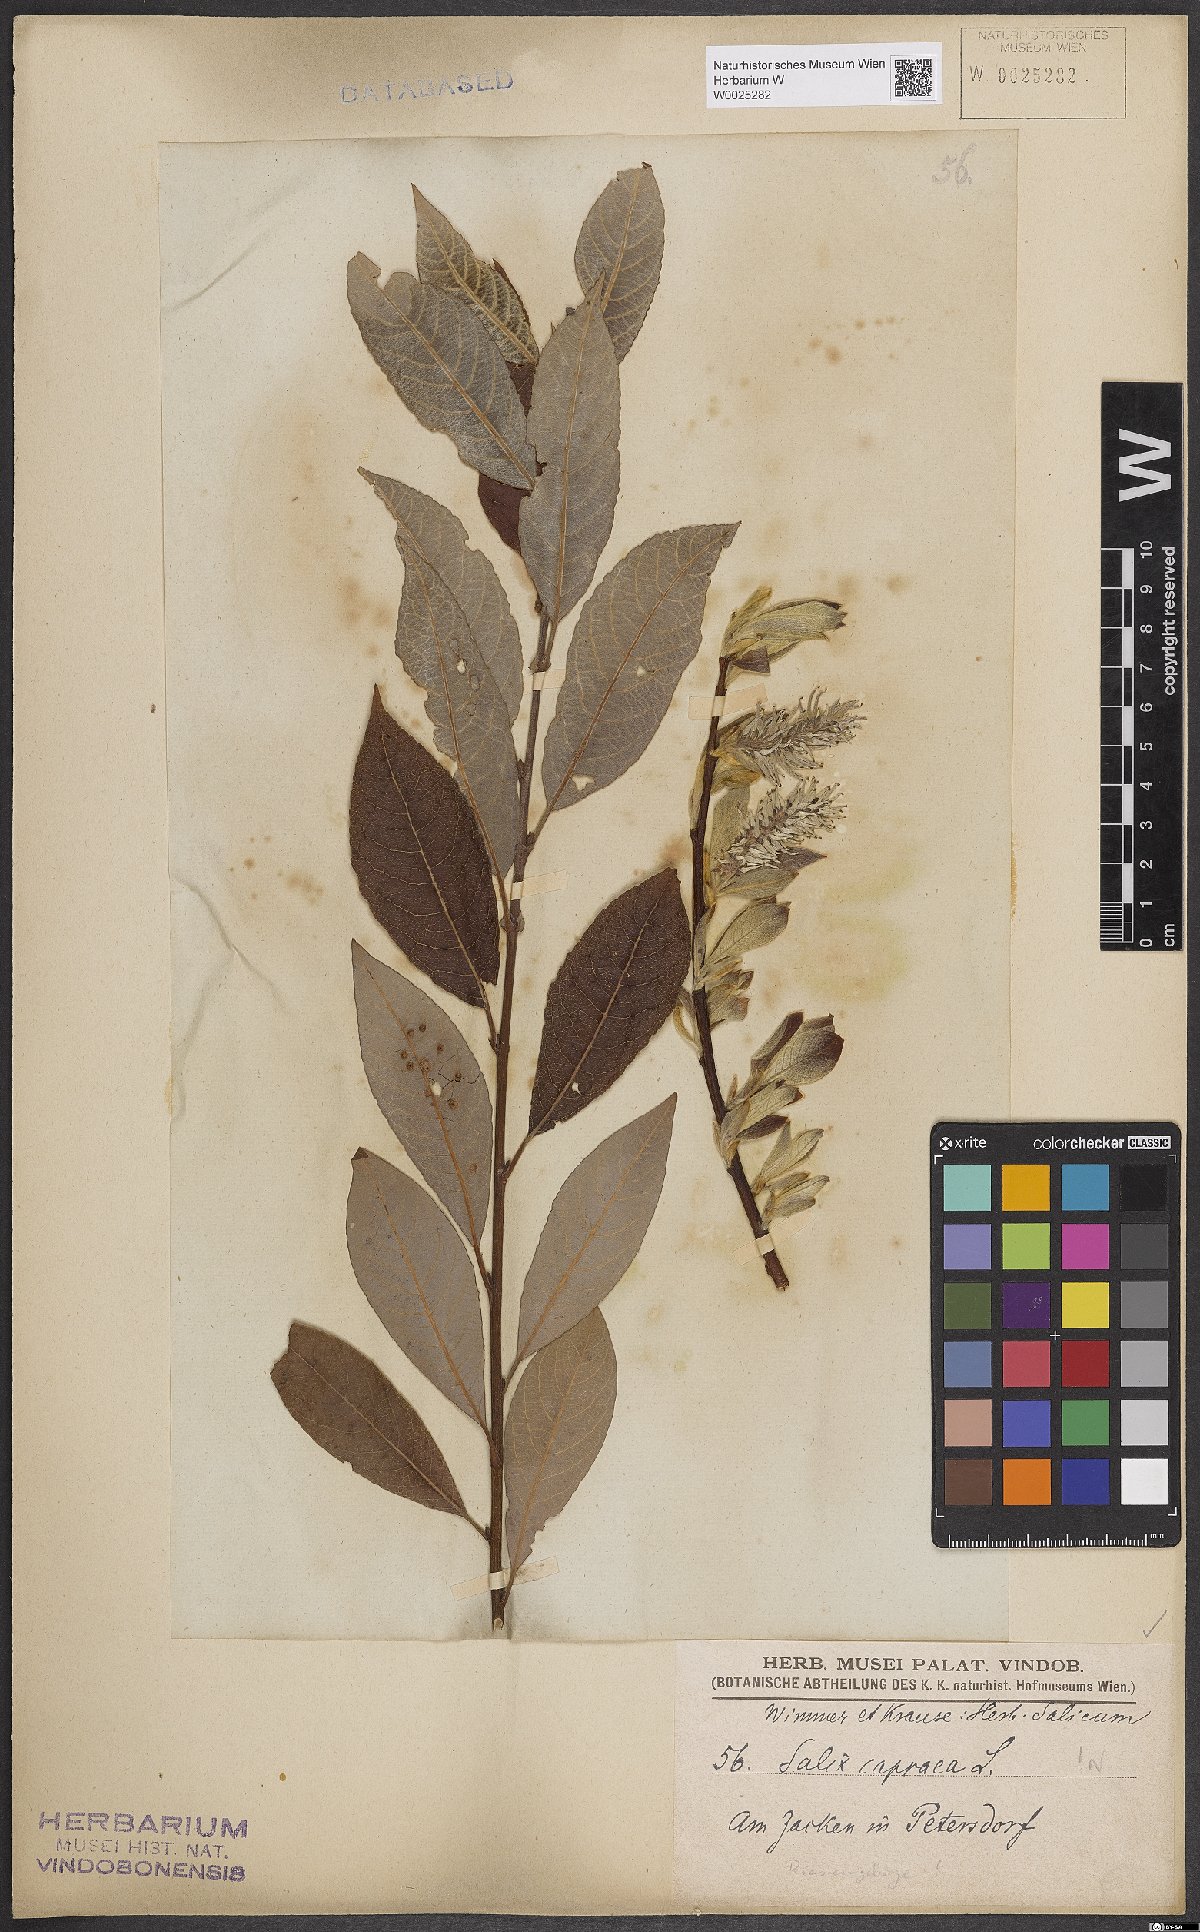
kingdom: Plantae
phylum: Tracheophyta
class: Magnoliopsida
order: Malpighiales
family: Salicaceae
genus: Salix
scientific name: Salix caprea
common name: Goat willow
